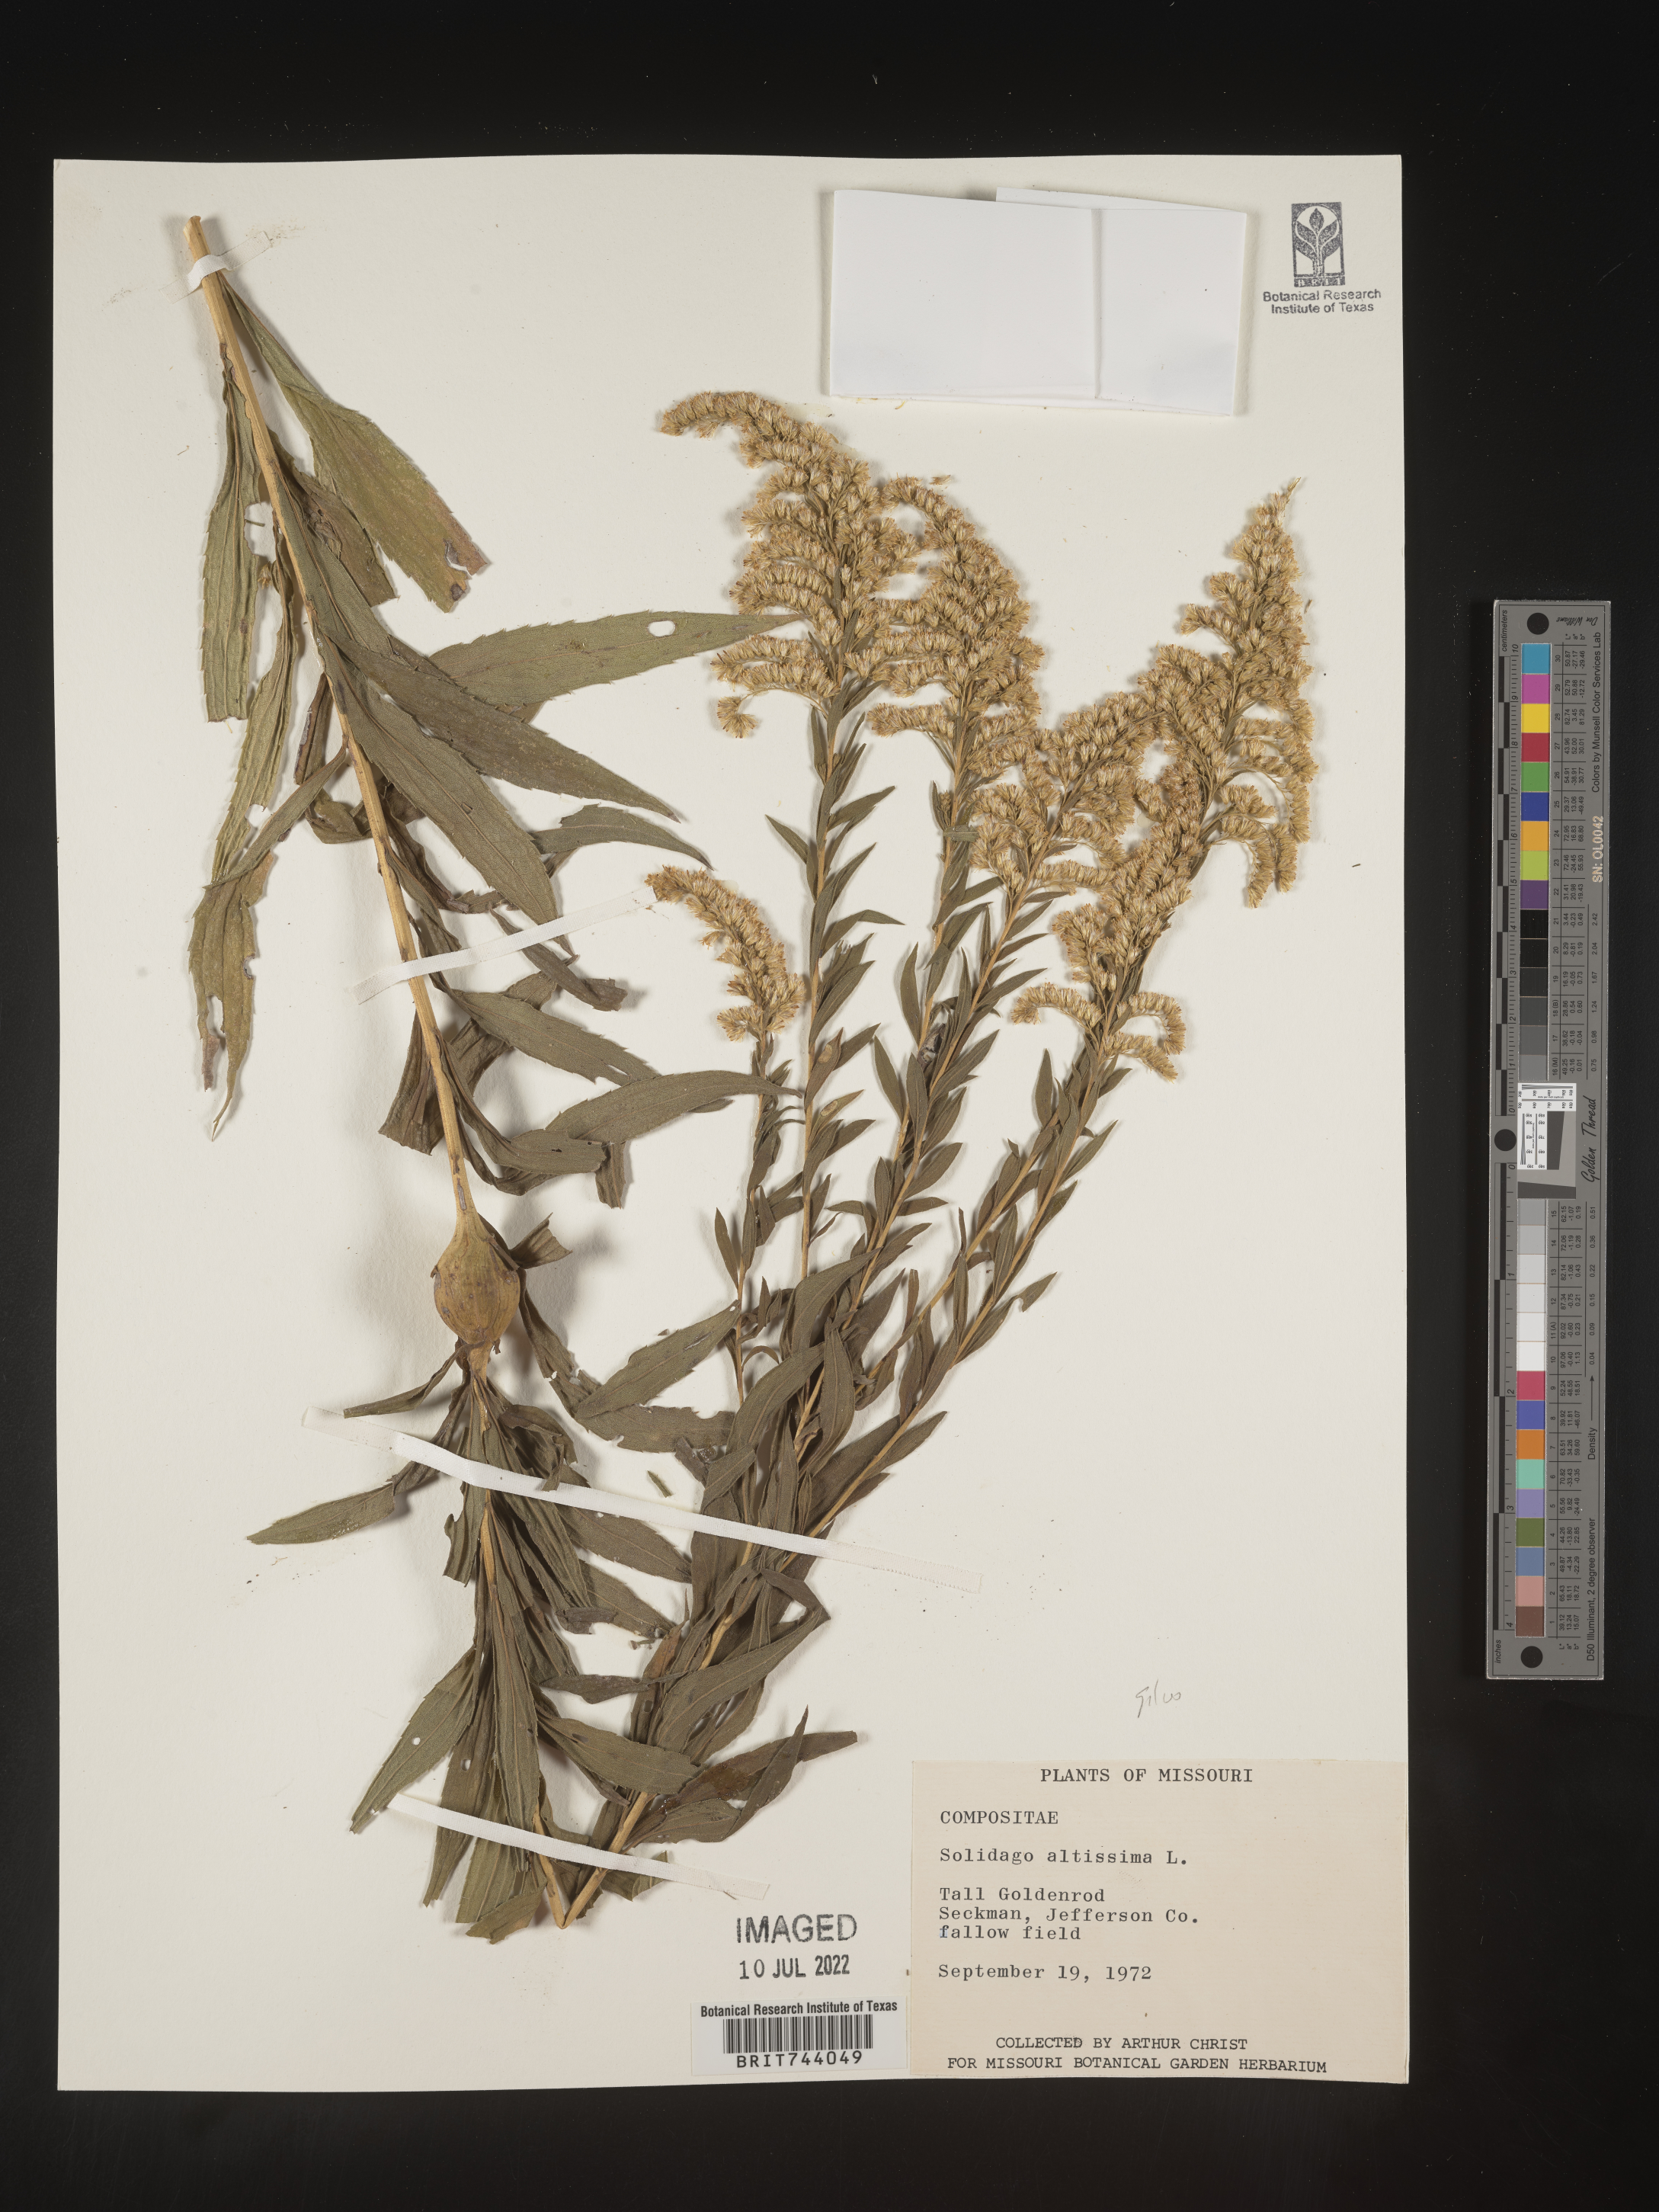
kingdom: Plantae
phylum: Tracheophyta
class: Magnoliopsida
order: Asterales
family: Asteraceae
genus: Solidago
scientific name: Solidago altissima
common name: Late goldenrod
